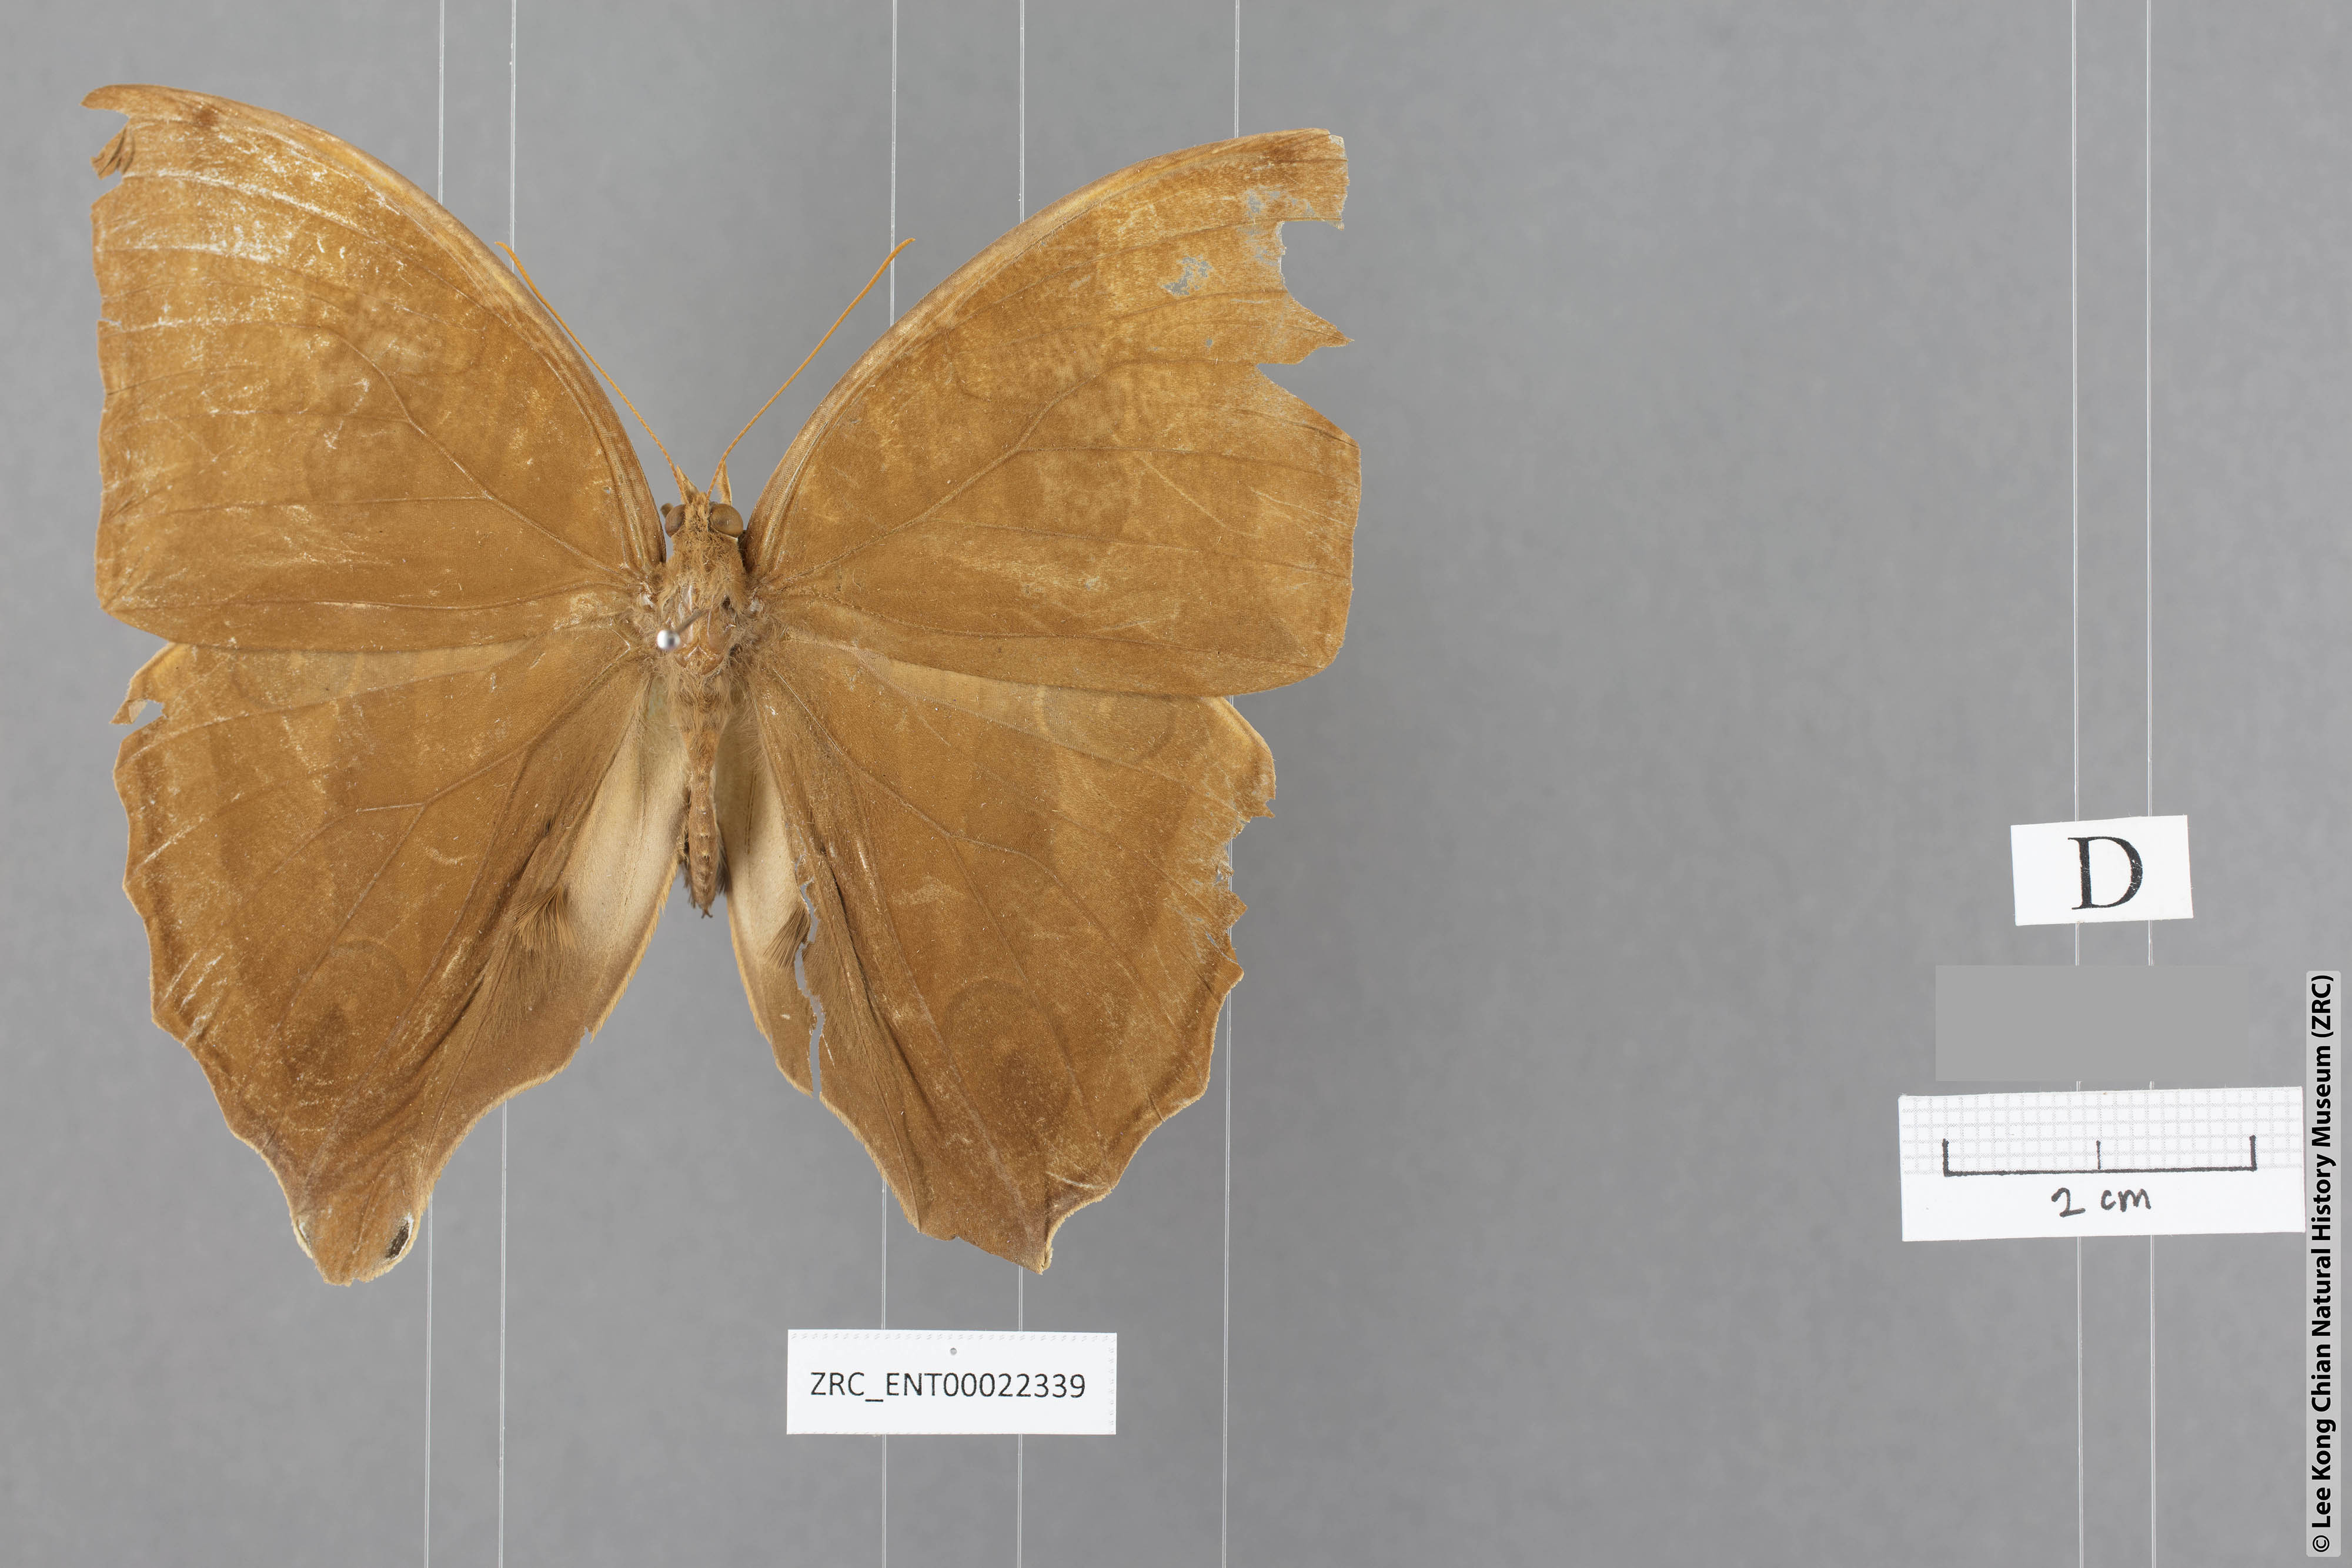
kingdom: Animalia
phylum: Arthropoda
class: Insecta
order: Lepidoptera
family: Nymphalidae
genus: Amathusia
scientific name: Amathusia
